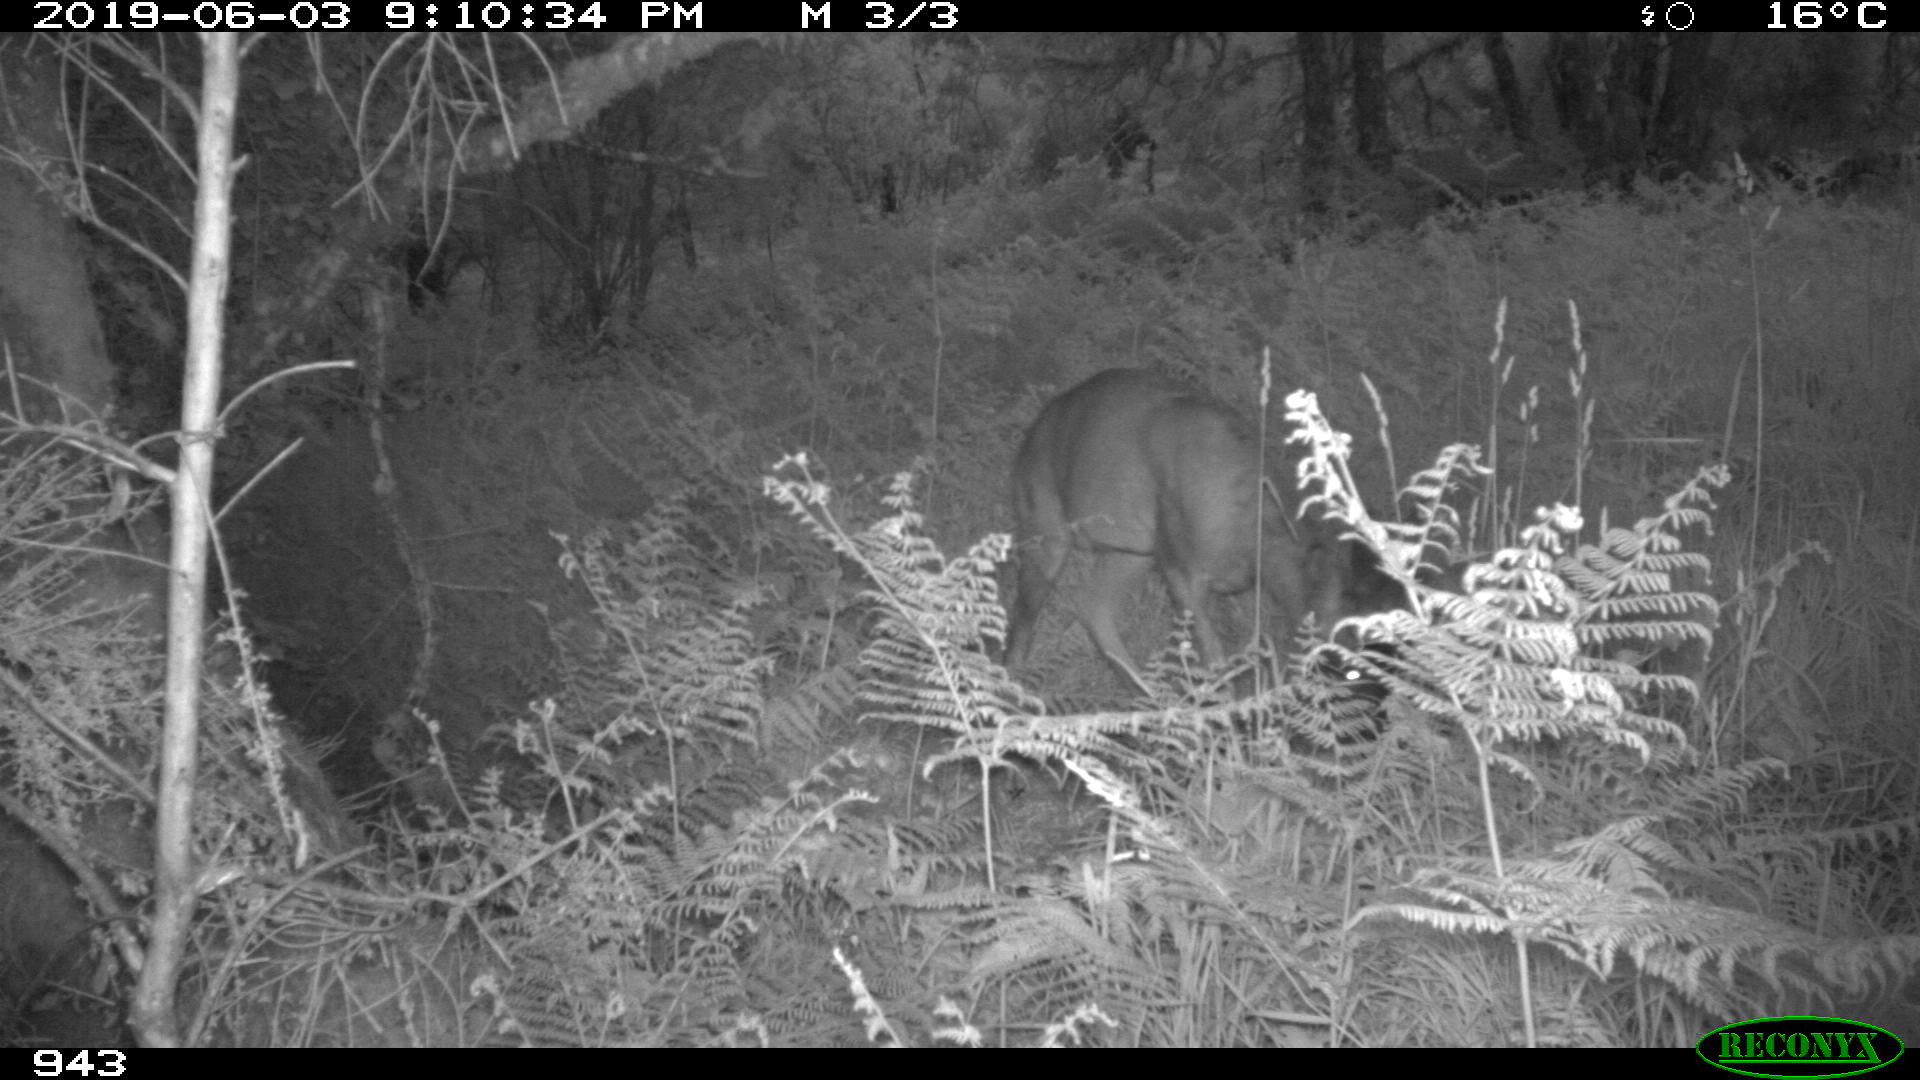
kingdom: Animalia
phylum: Chordata
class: Mammalia
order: Artiodactyla
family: Cervidae
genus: Capreolus
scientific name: Capreolus capreolus
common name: Western roe deer
